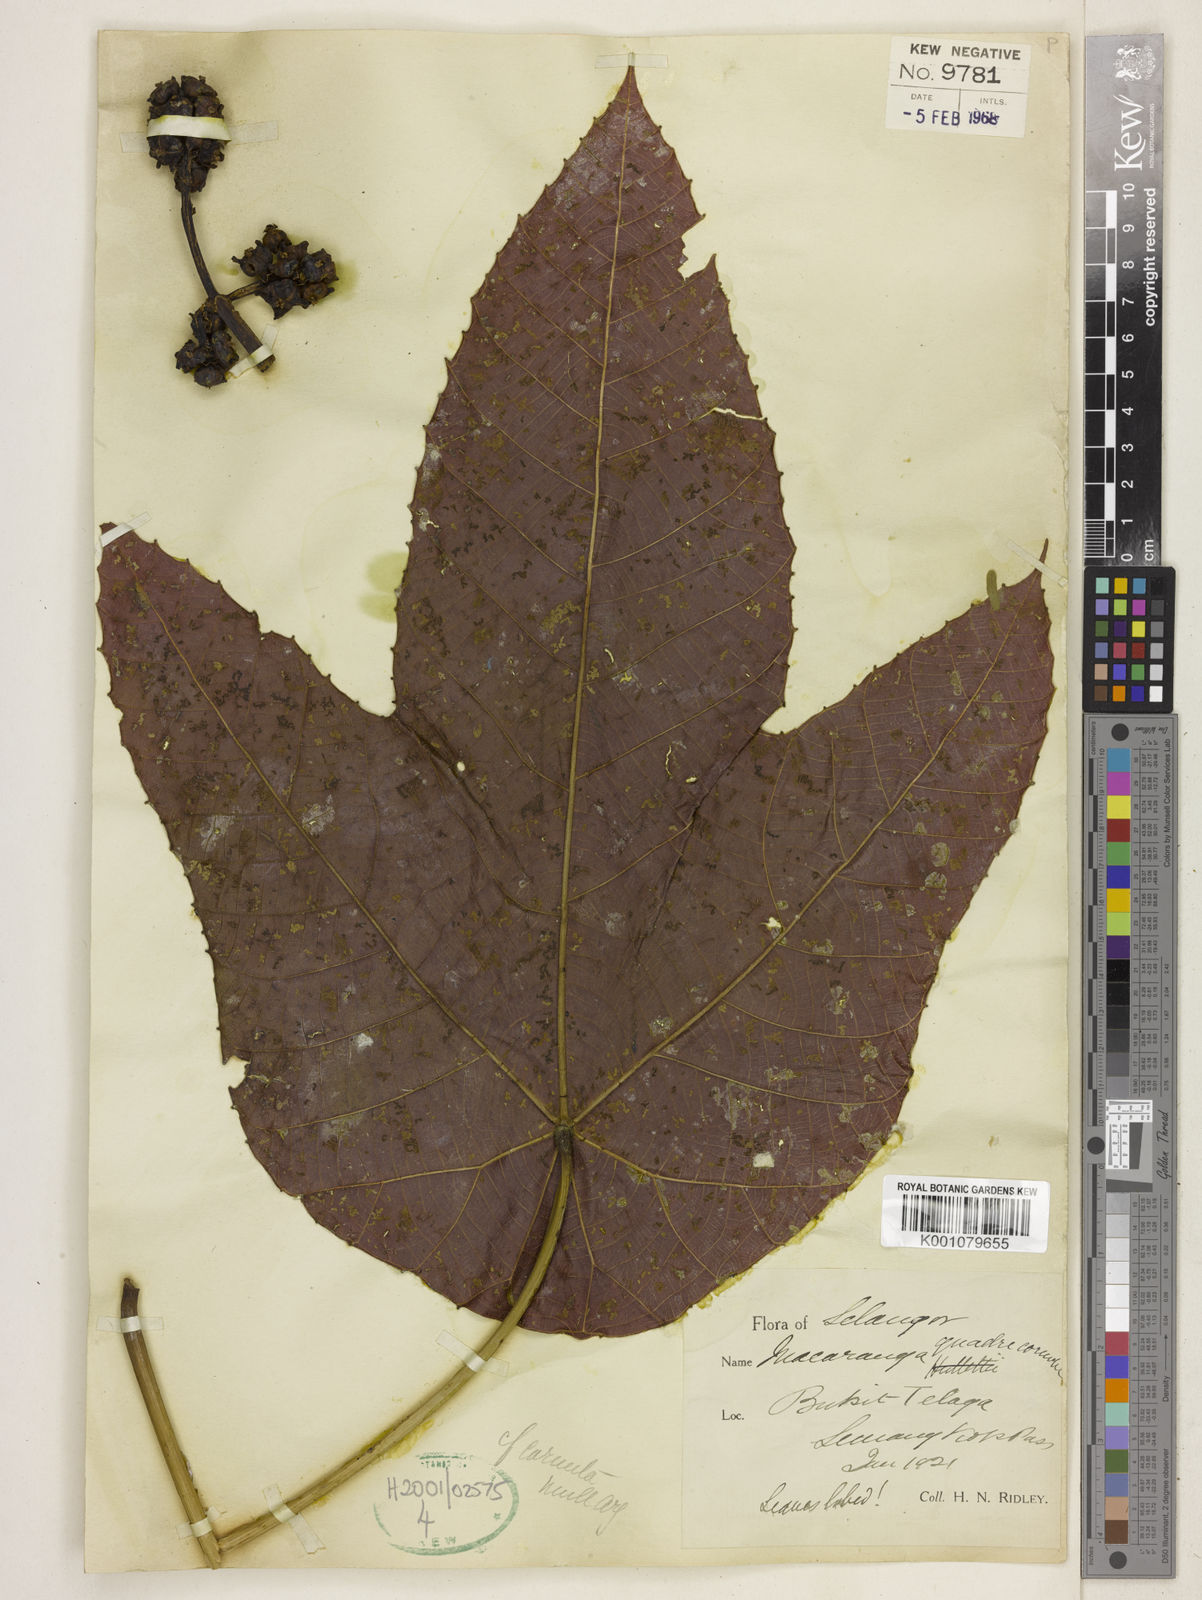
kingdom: Plantae
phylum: Tracheophyta
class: Magnoliopsida
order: Malpighiales
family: Euphorbiaceae
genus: Macaranga
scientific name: Macaranga triloba
